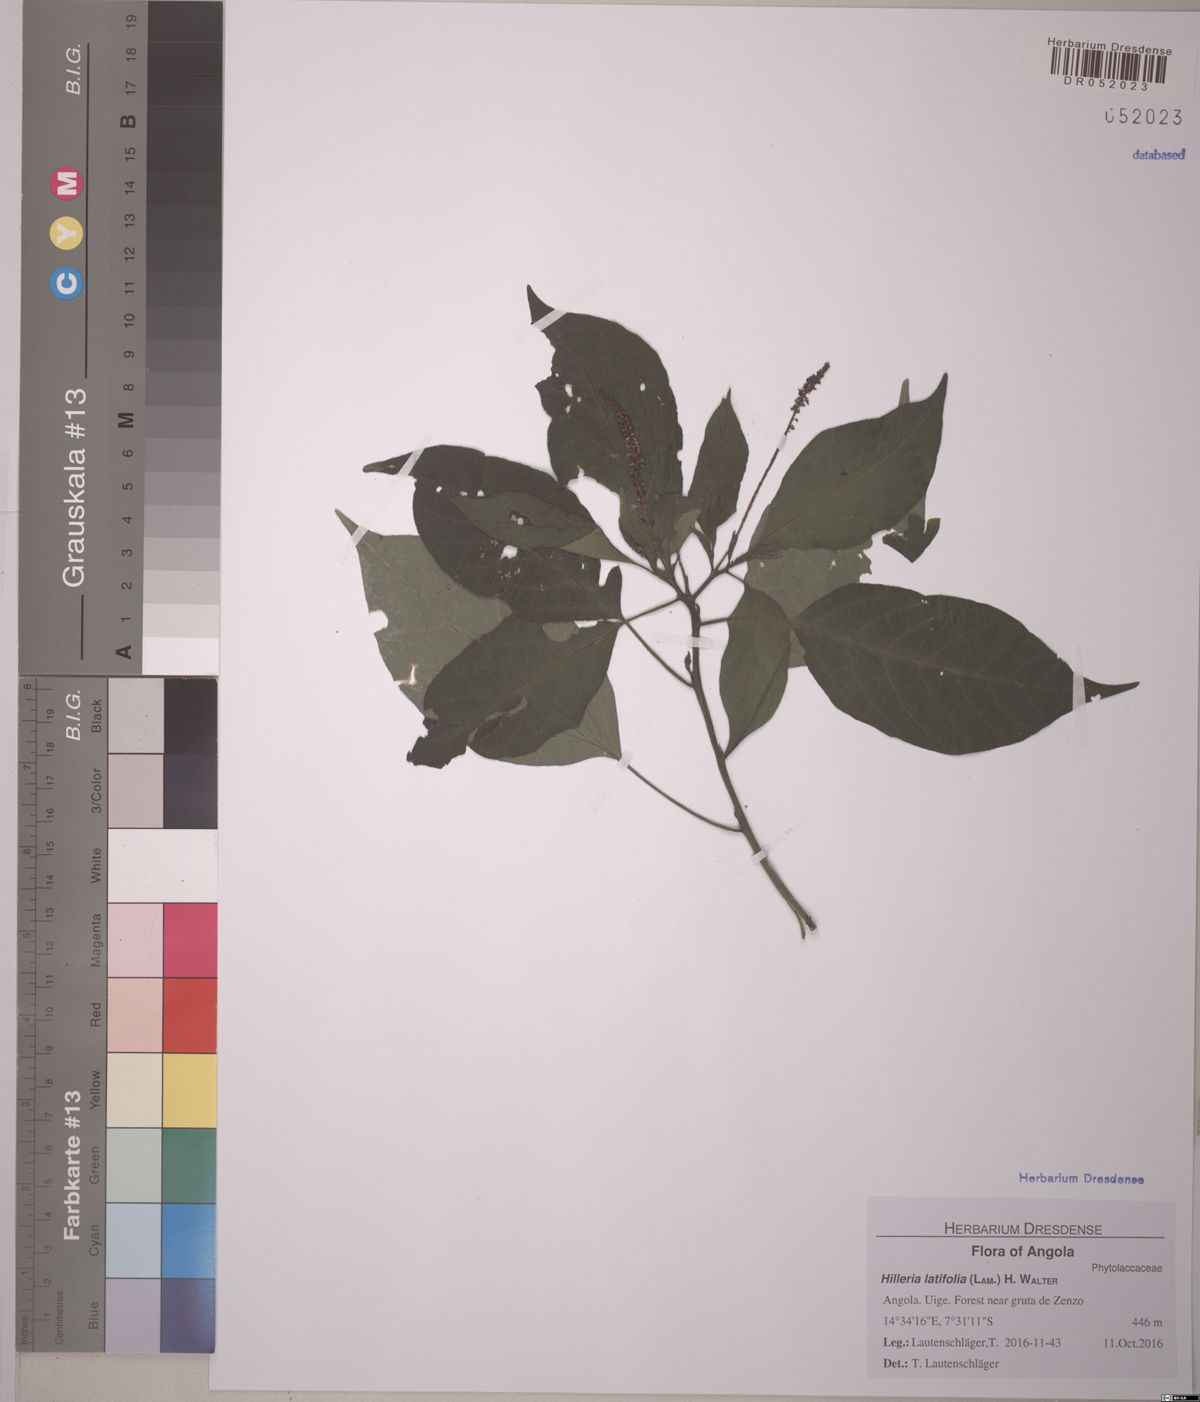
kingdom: Plantae
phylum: Tracheophyta
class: Magnoliopsida
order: Caryophyllales
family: Phytolaccaceae
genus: Hilleria
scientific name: Hilleria latifolia
